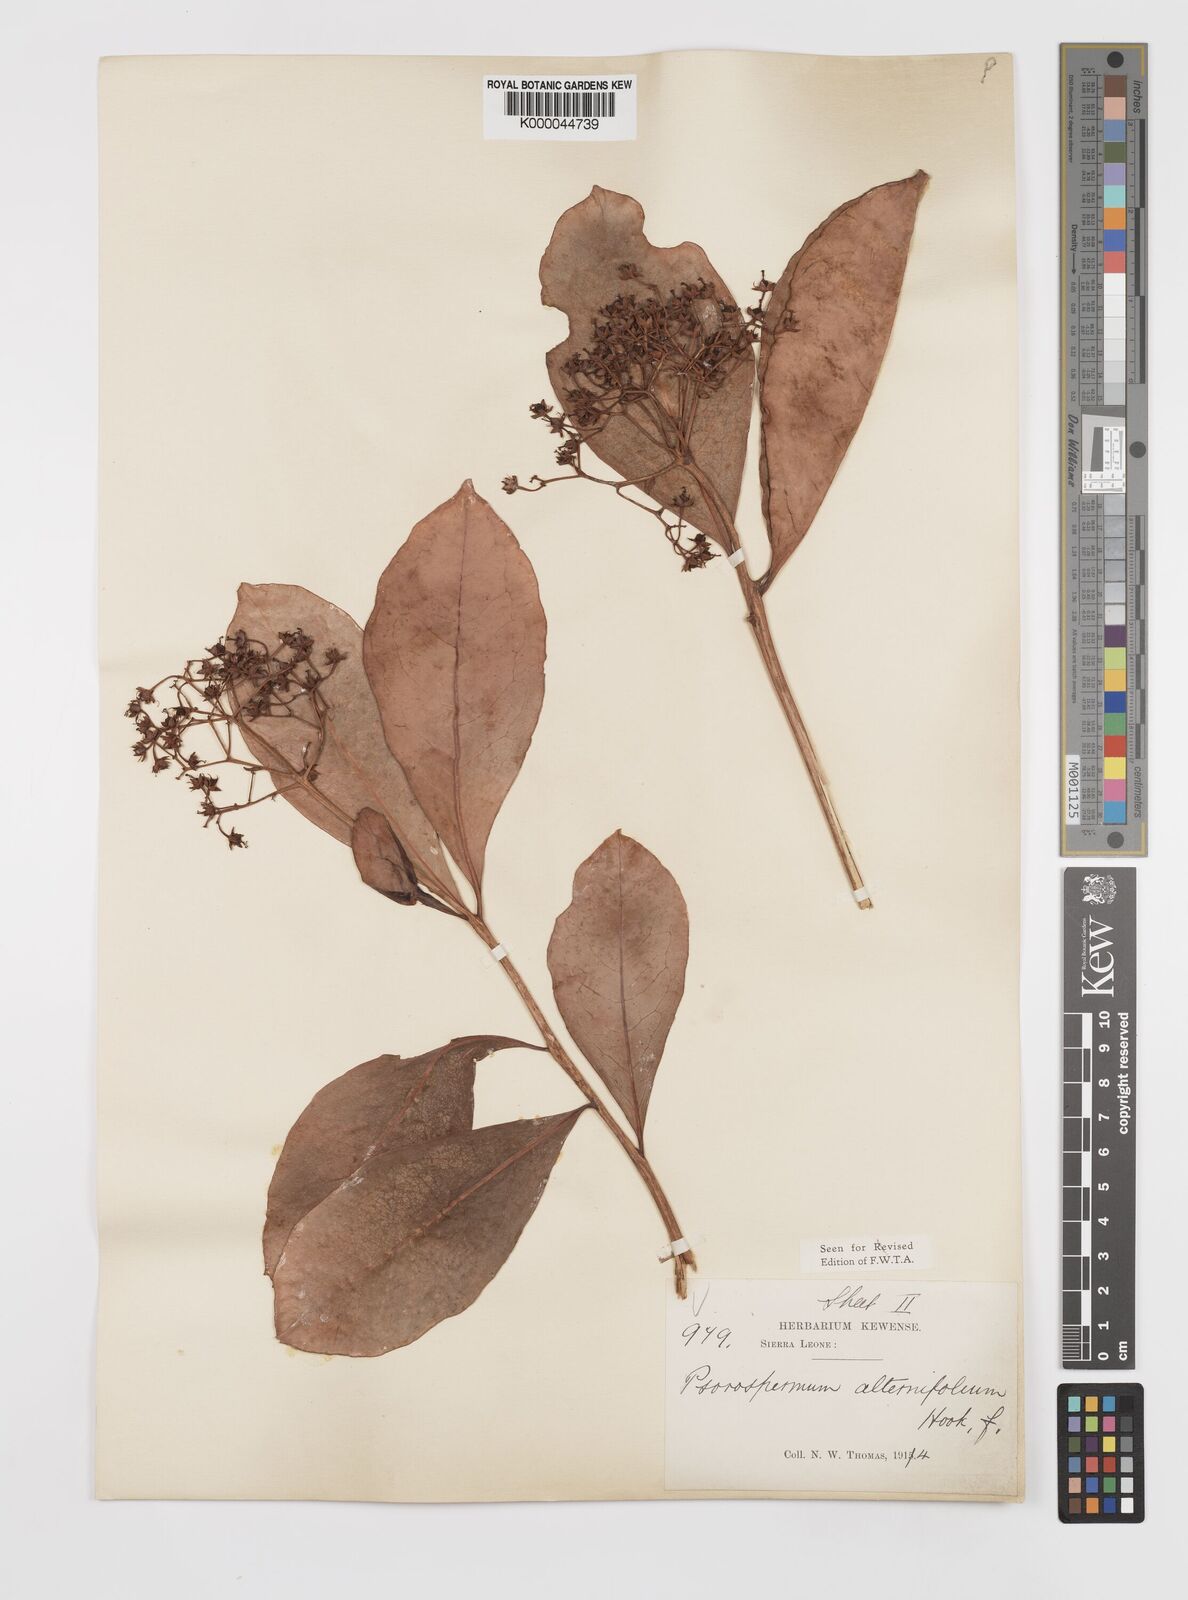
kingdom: Plantae
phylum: Tracheophyta
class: Magnoliopsida
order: Malpighiales
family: Hypericaceae
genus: Psorospermum
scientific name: Psorospermum alternifolium
